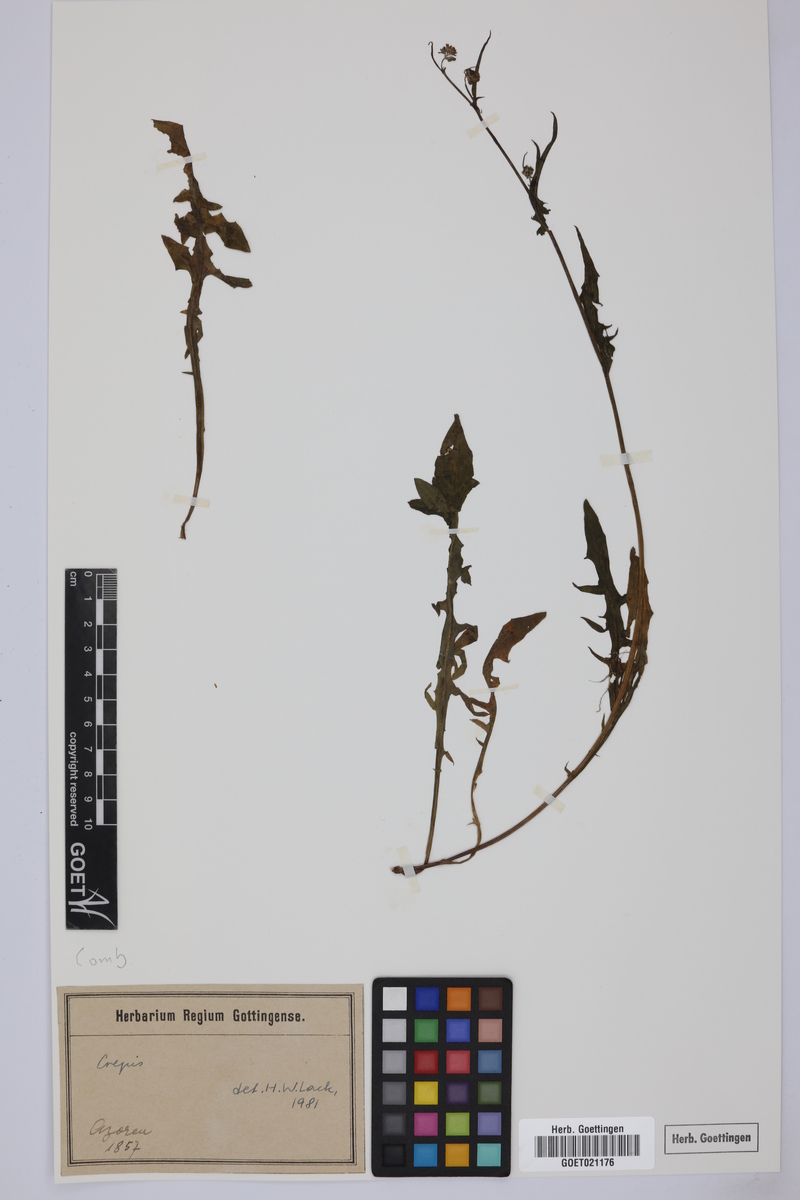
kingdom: Plantae
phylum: Tracheophyta
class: Magnoliopsida
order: Asterales
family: Asteraceae
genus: Crepis
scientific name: Crepis
